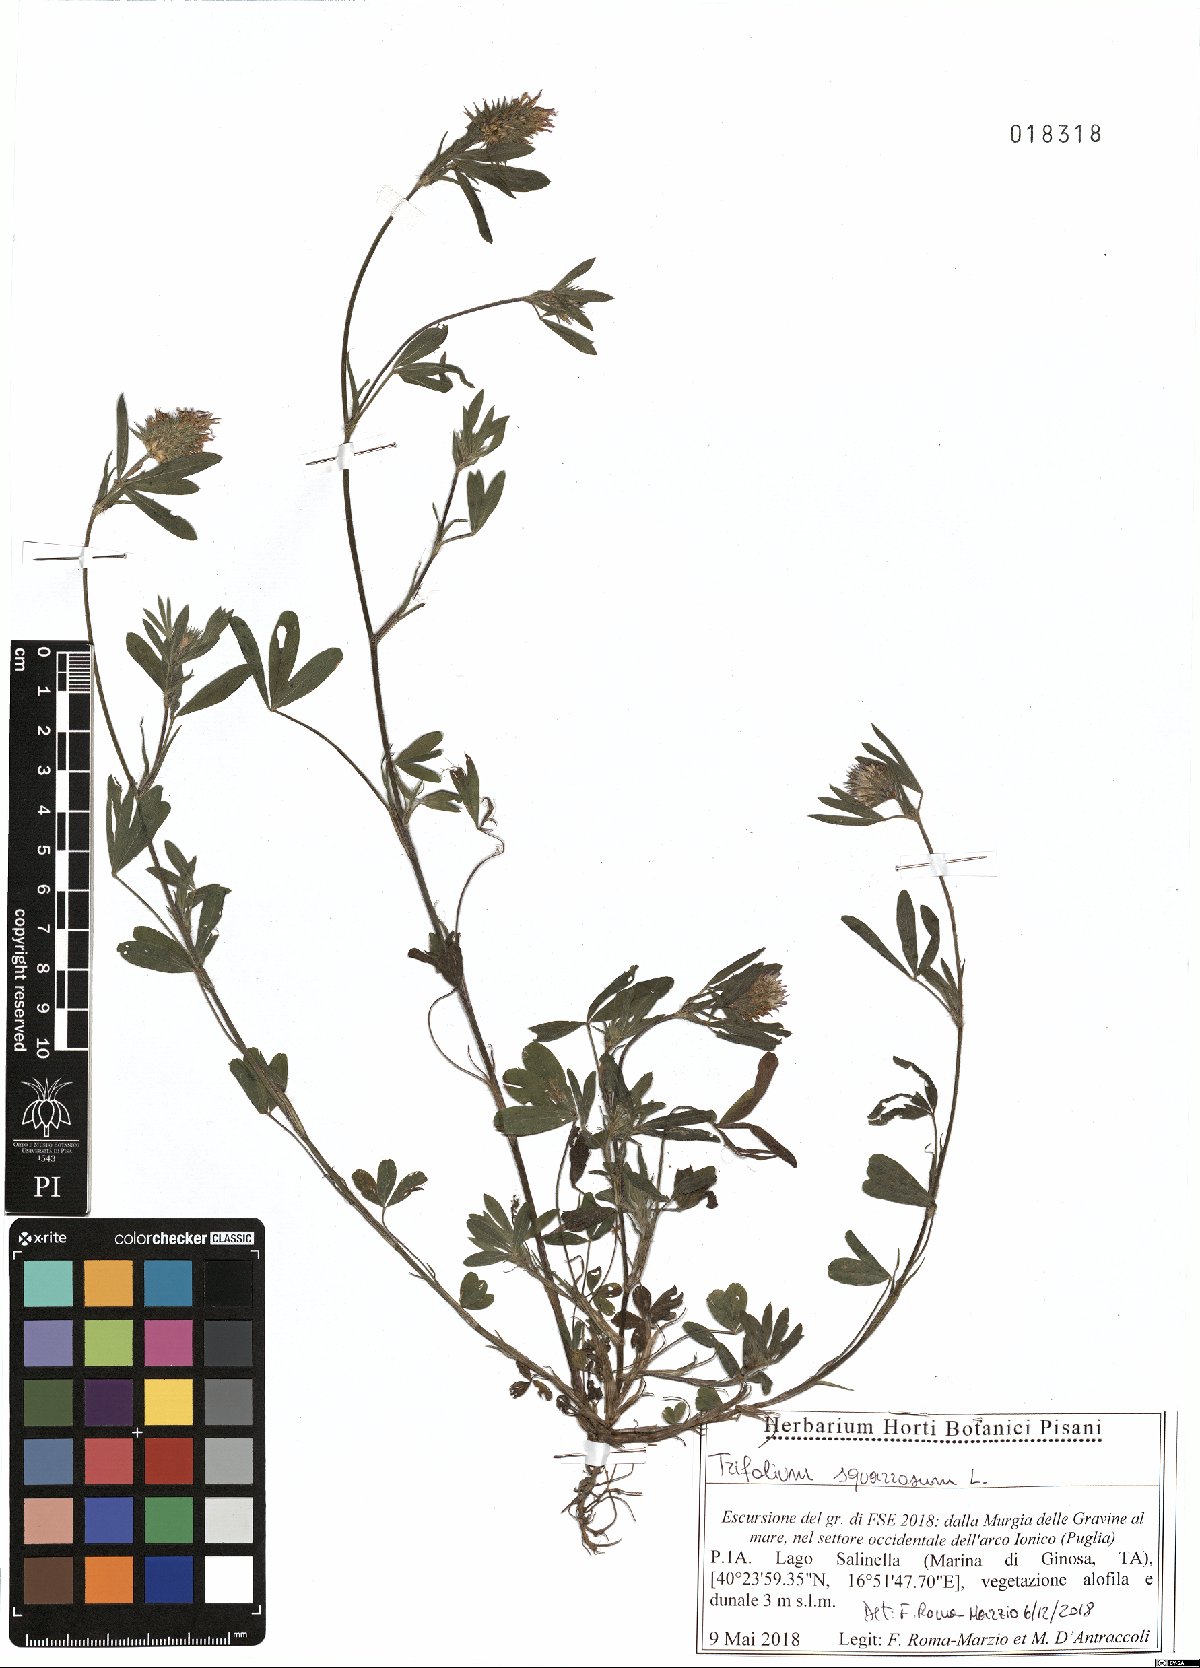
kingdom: Plantae
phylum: Tracheophyta
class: Magnoliopsida
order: Fabales
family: Fabaceae
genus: Trifolium
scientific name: Trifolium squarrosum
